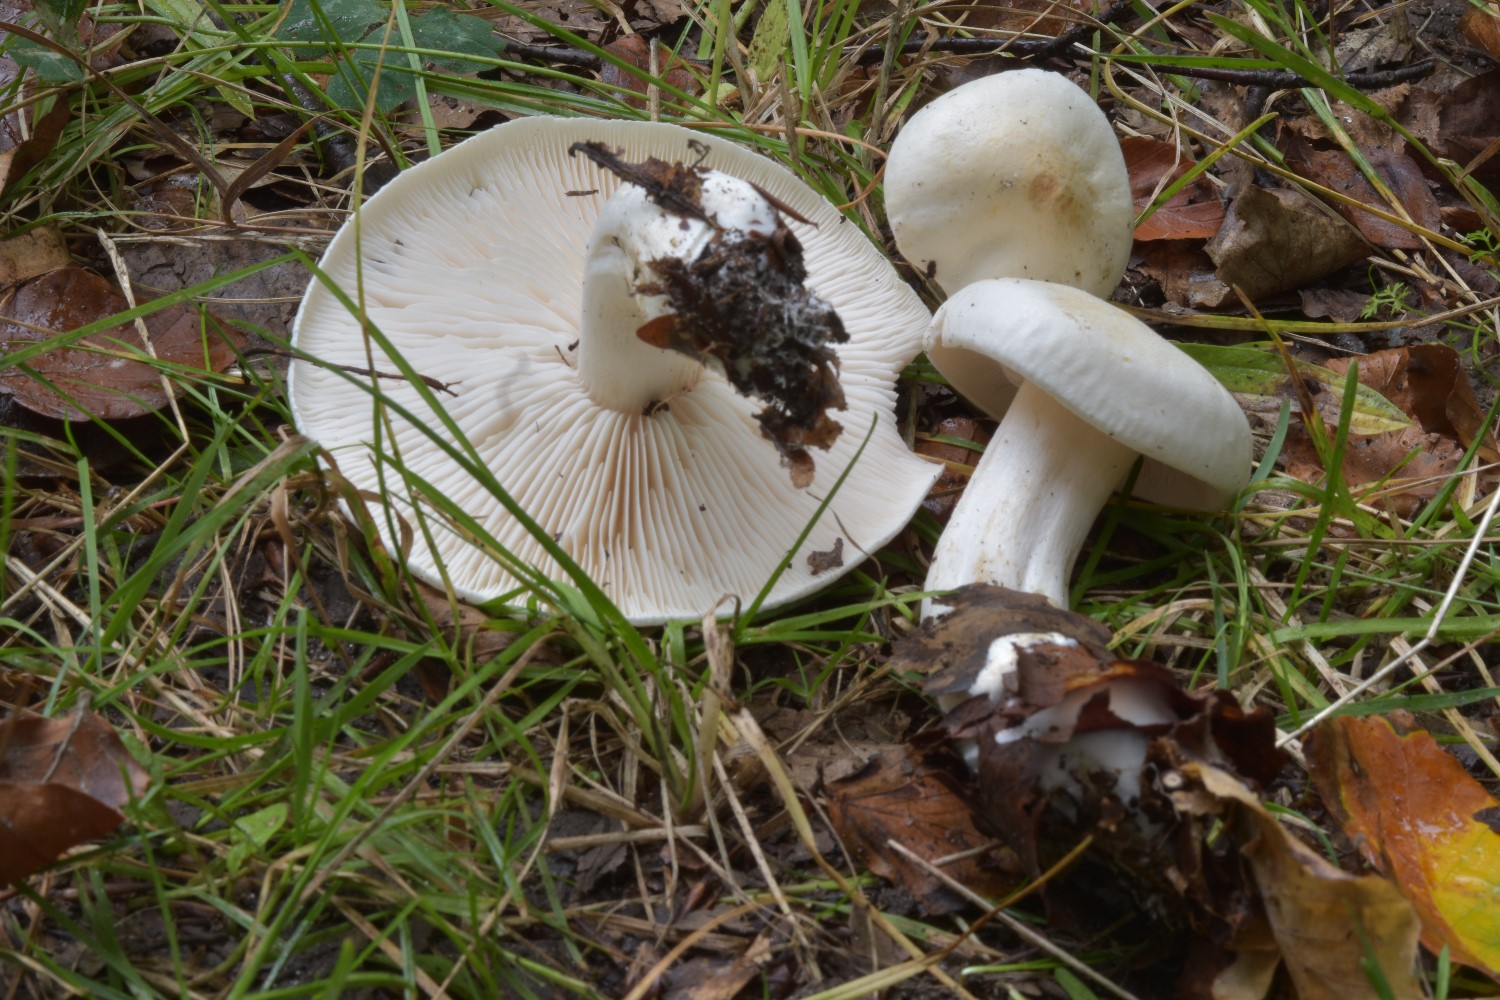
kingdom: Fungi
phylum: Basidiomycota
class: Agaricomycetes
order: Agaricales
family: Tricholomataceae
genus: Tricholoma
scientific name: Tricholoma stiparophyllum
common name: hvid ridderhat
